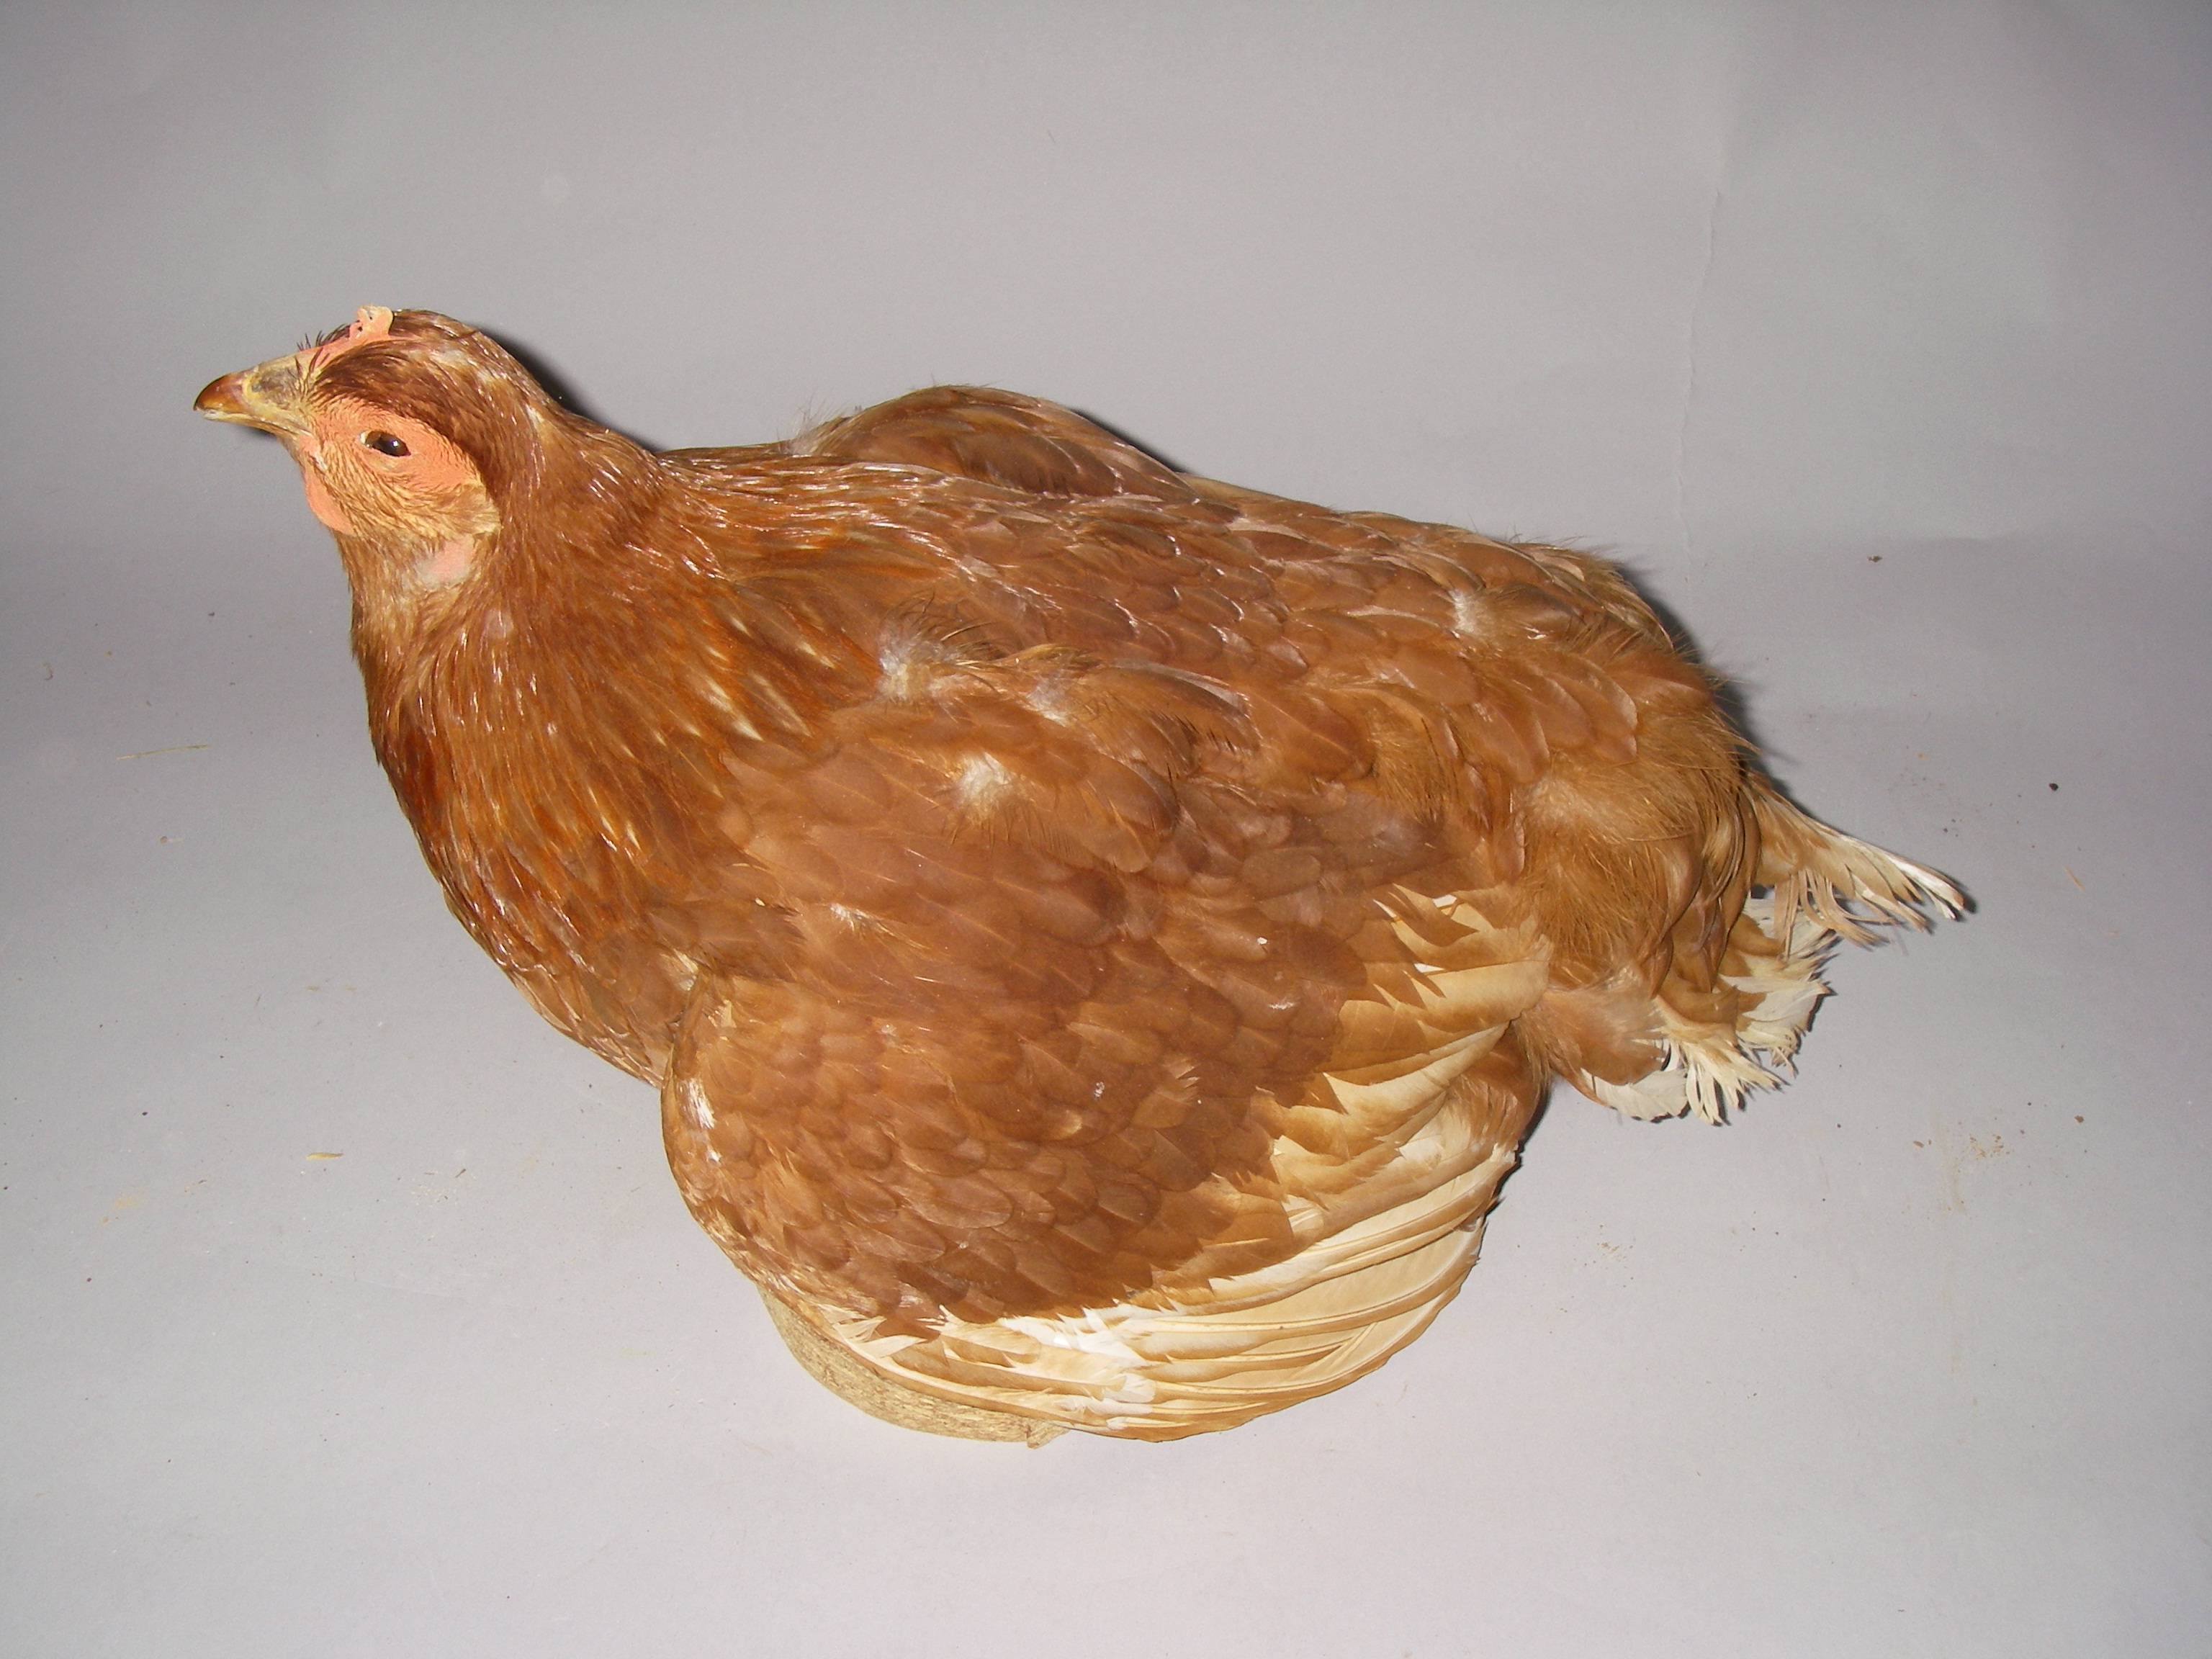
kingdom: Animalia
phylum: Chordata
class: Aves
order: Galliformes
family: Phasianidae
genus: Gallus
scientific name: Gallus gallus
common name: Red junglefowl
